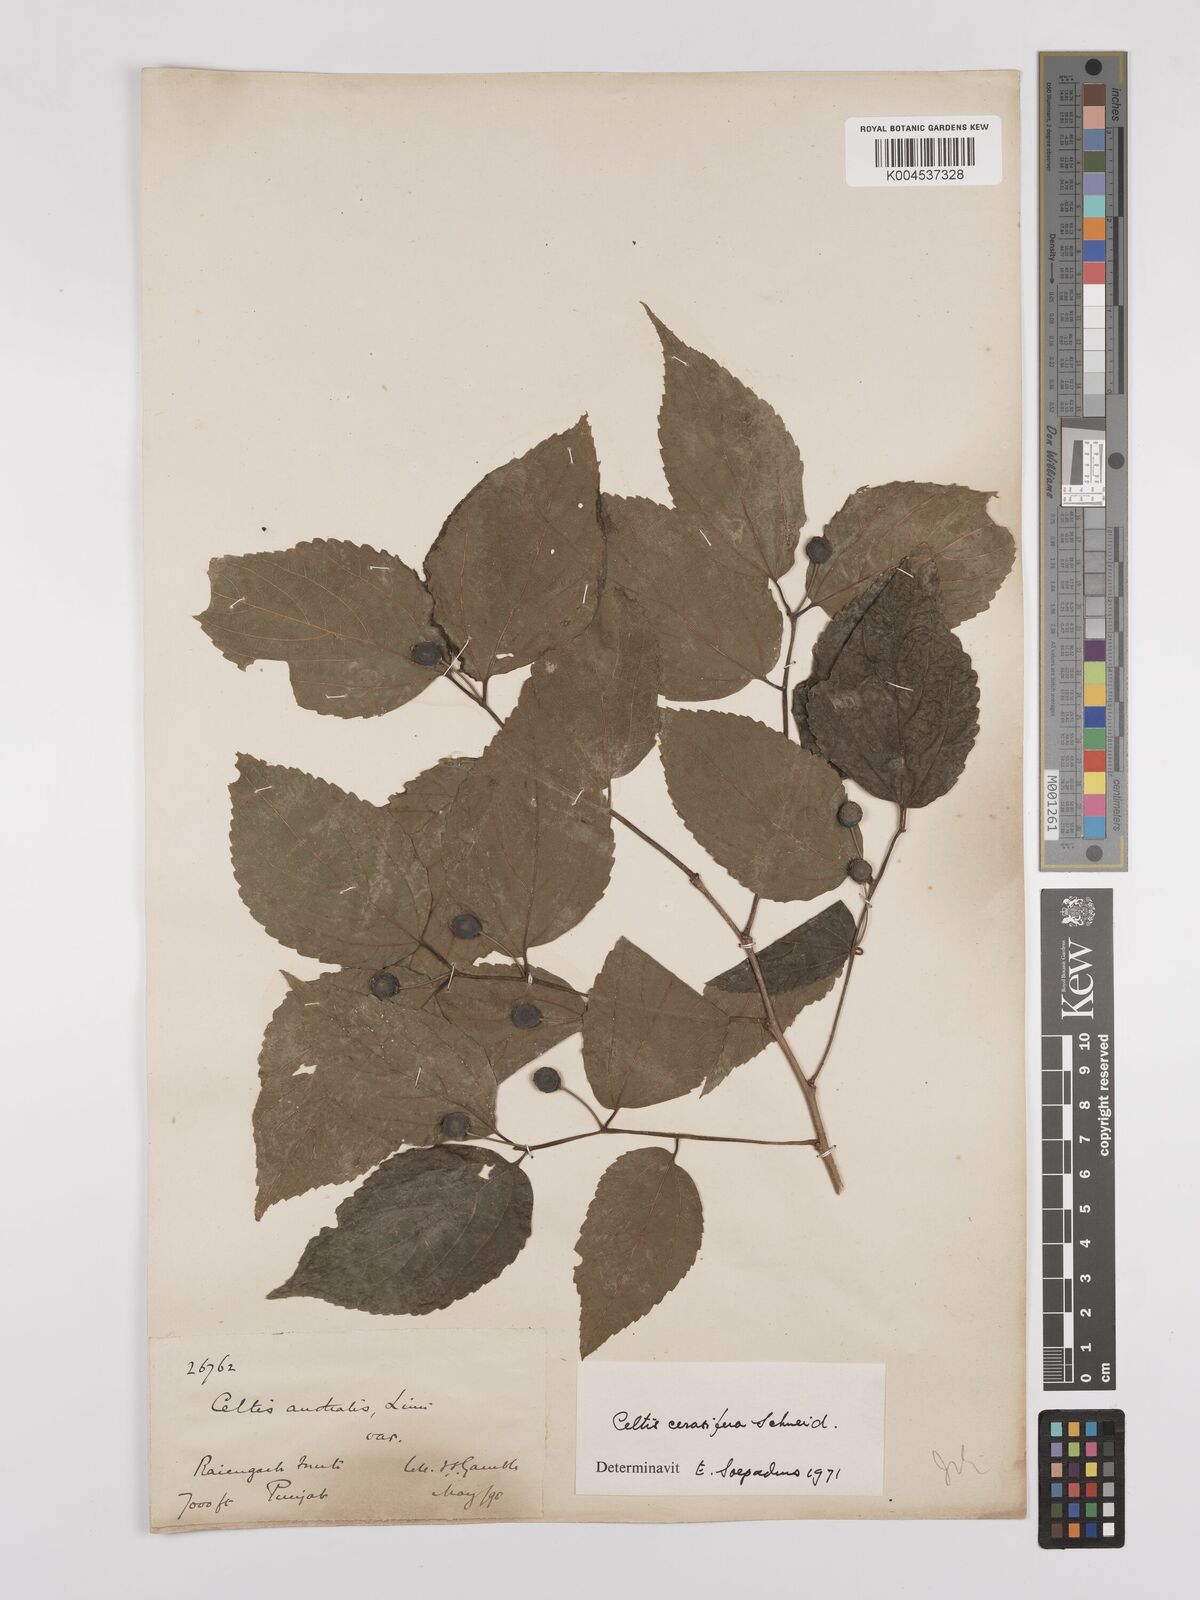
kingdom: Plantae
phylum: Tracheophyta
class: Magnoliopsida
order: Rosales
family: Cannabaceae
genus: Celtis
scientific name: Celtis cerasifera
